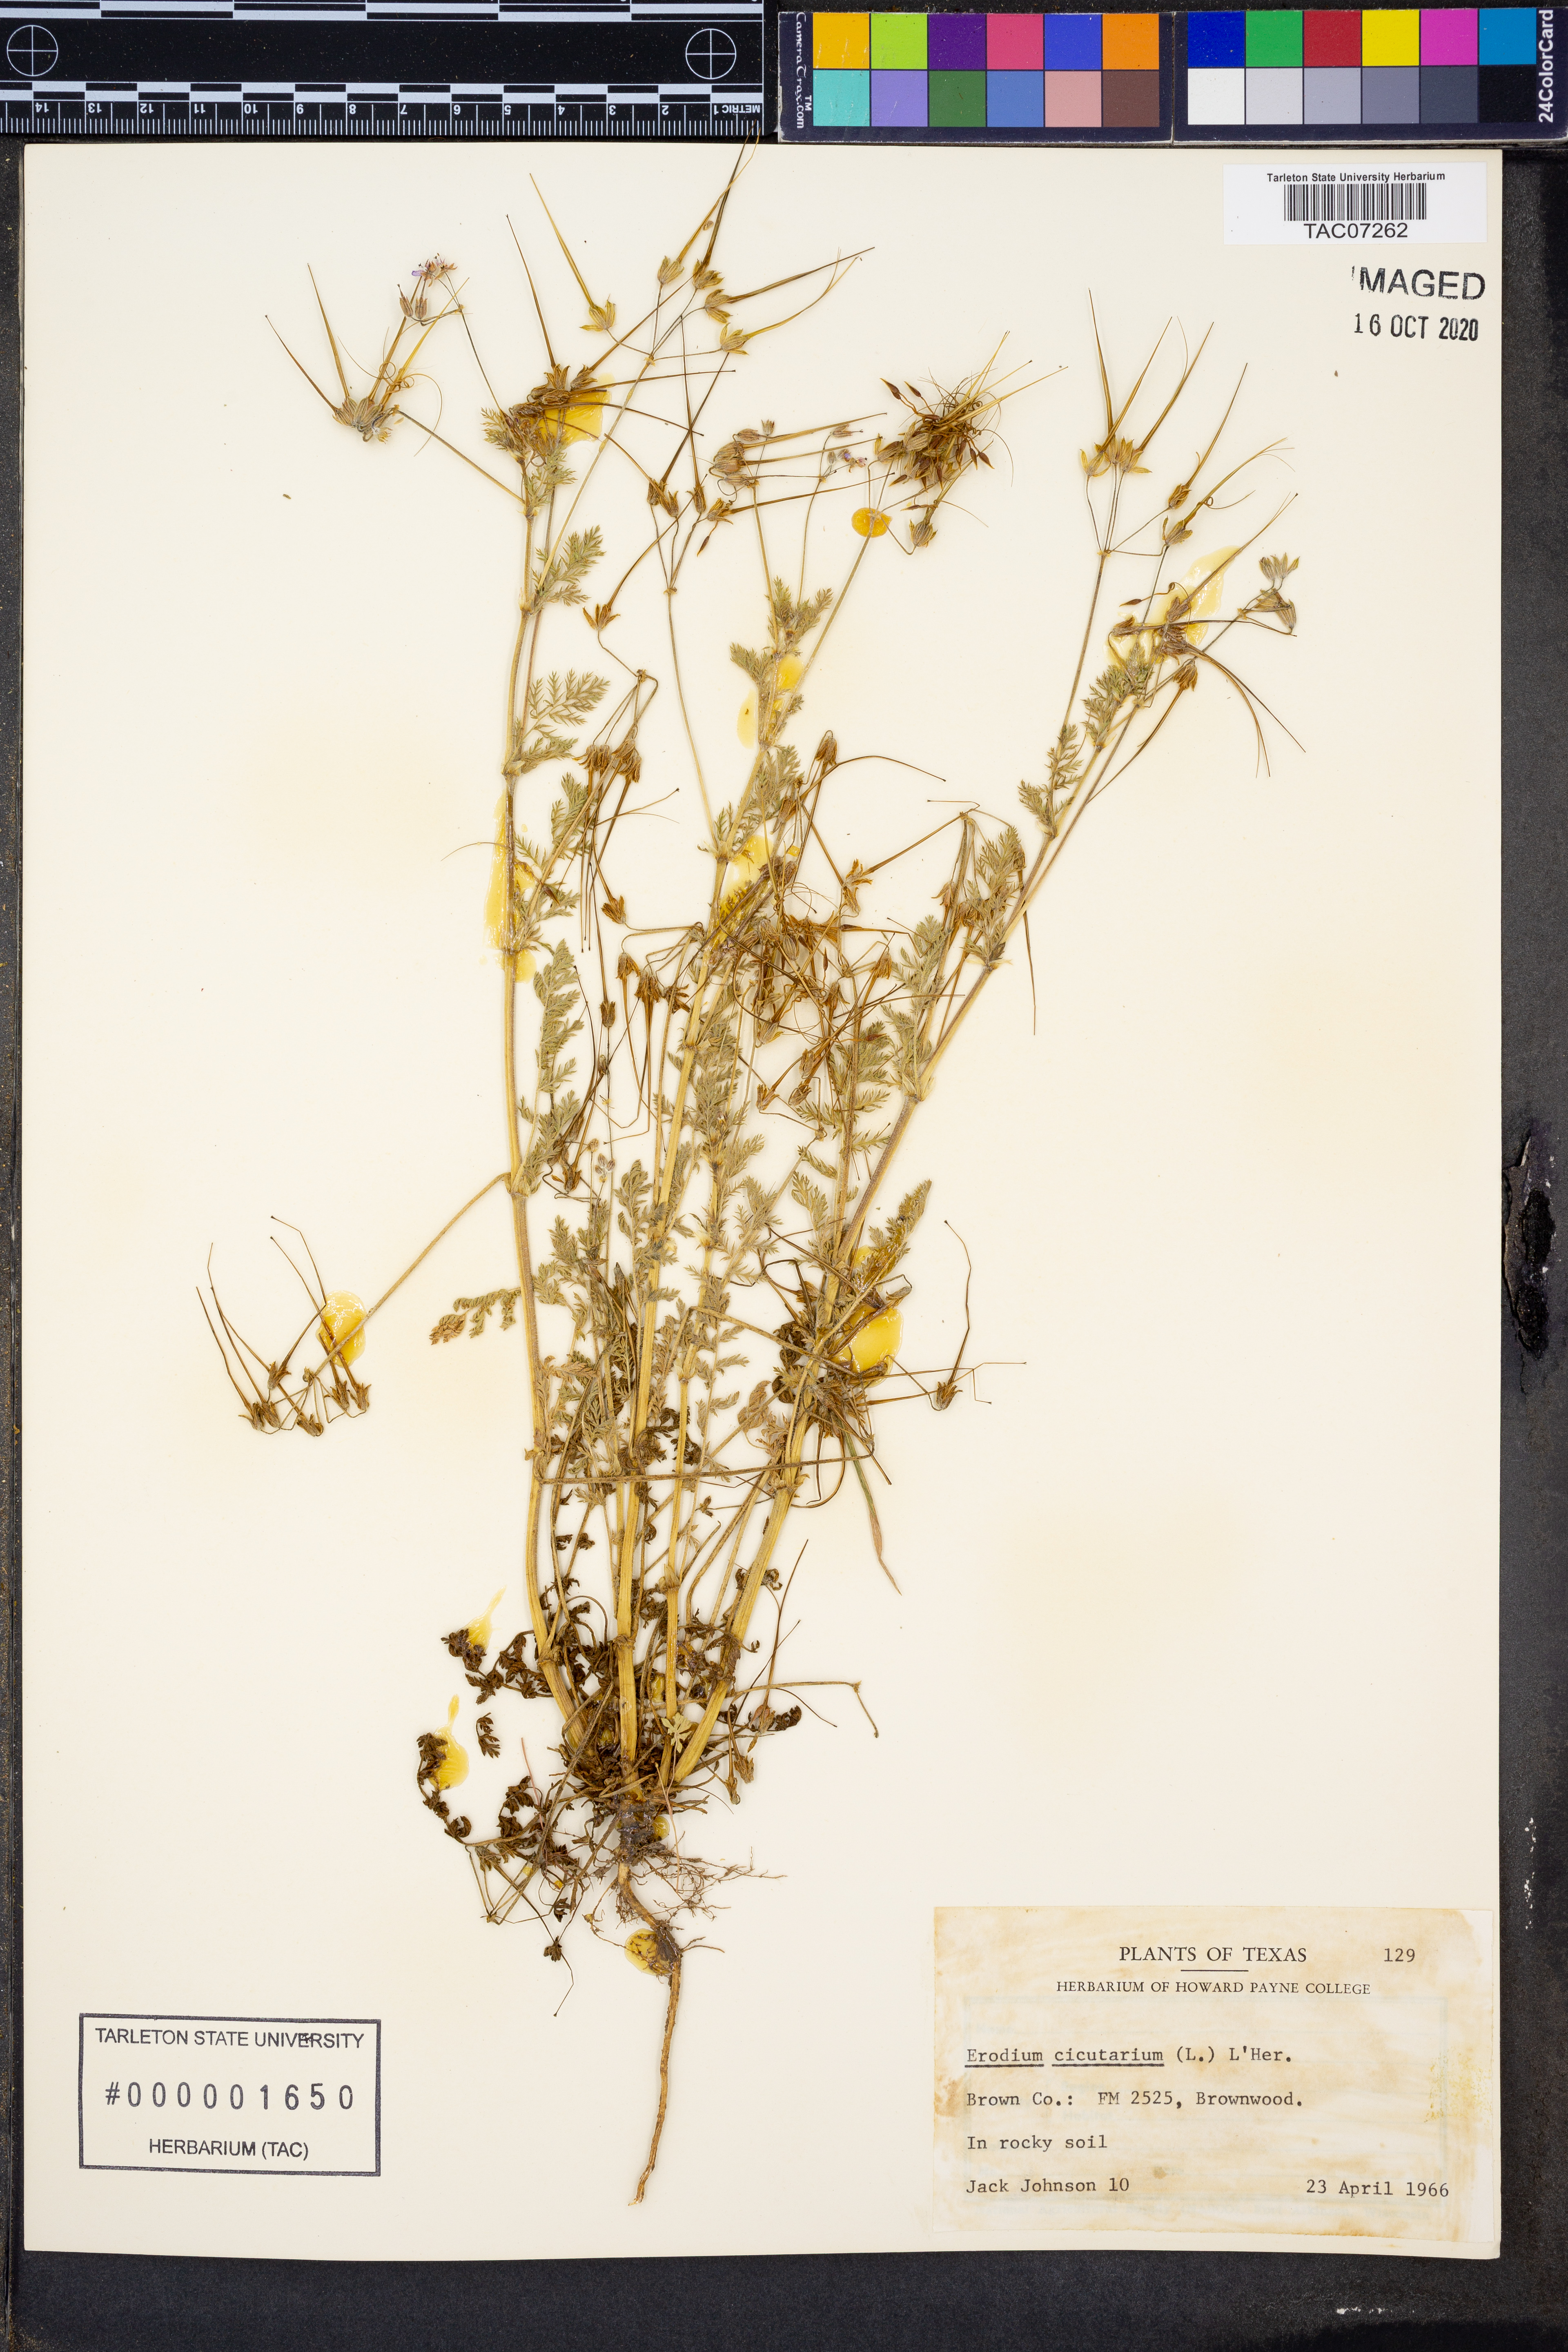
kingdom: Plantae
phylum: Tracheophyta
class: Magnoliopsida
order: Geraniales
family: Geraniaceae
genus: Erodium
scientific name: Erodium cicutarium
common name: Common stork's-bill
